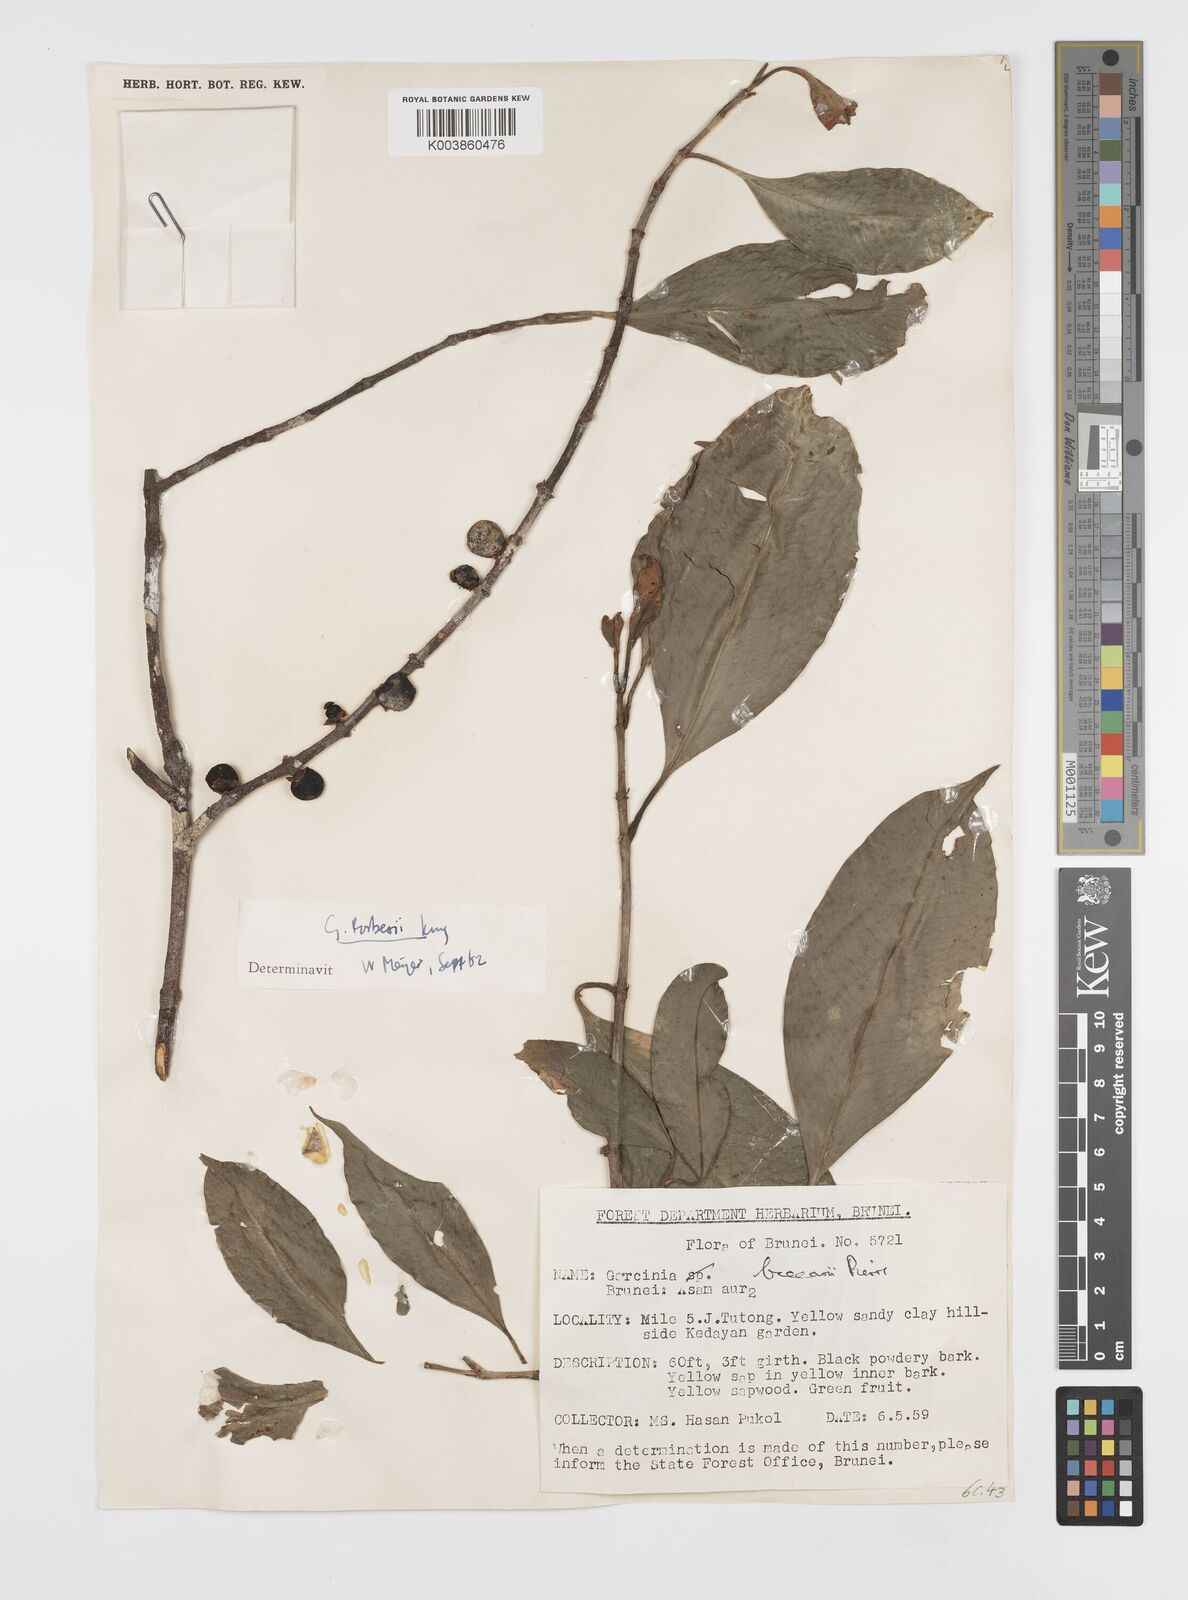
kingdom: Plantae
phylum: Tracheophyta
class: Magnoliopsida
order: Malpighiales
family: Clusiaceae
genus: Garcinia
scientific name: Garcinia beccarii
